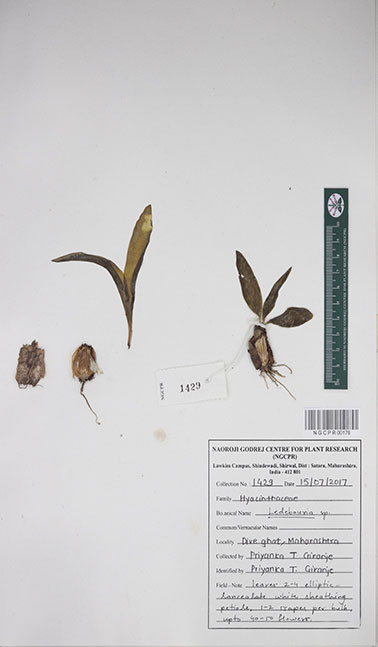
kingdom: Plantae
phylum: Tracheophyta
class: Liliopsida
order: Asparagales
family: Asparagaceae
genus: Ledebouria
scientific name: Ledebouria
